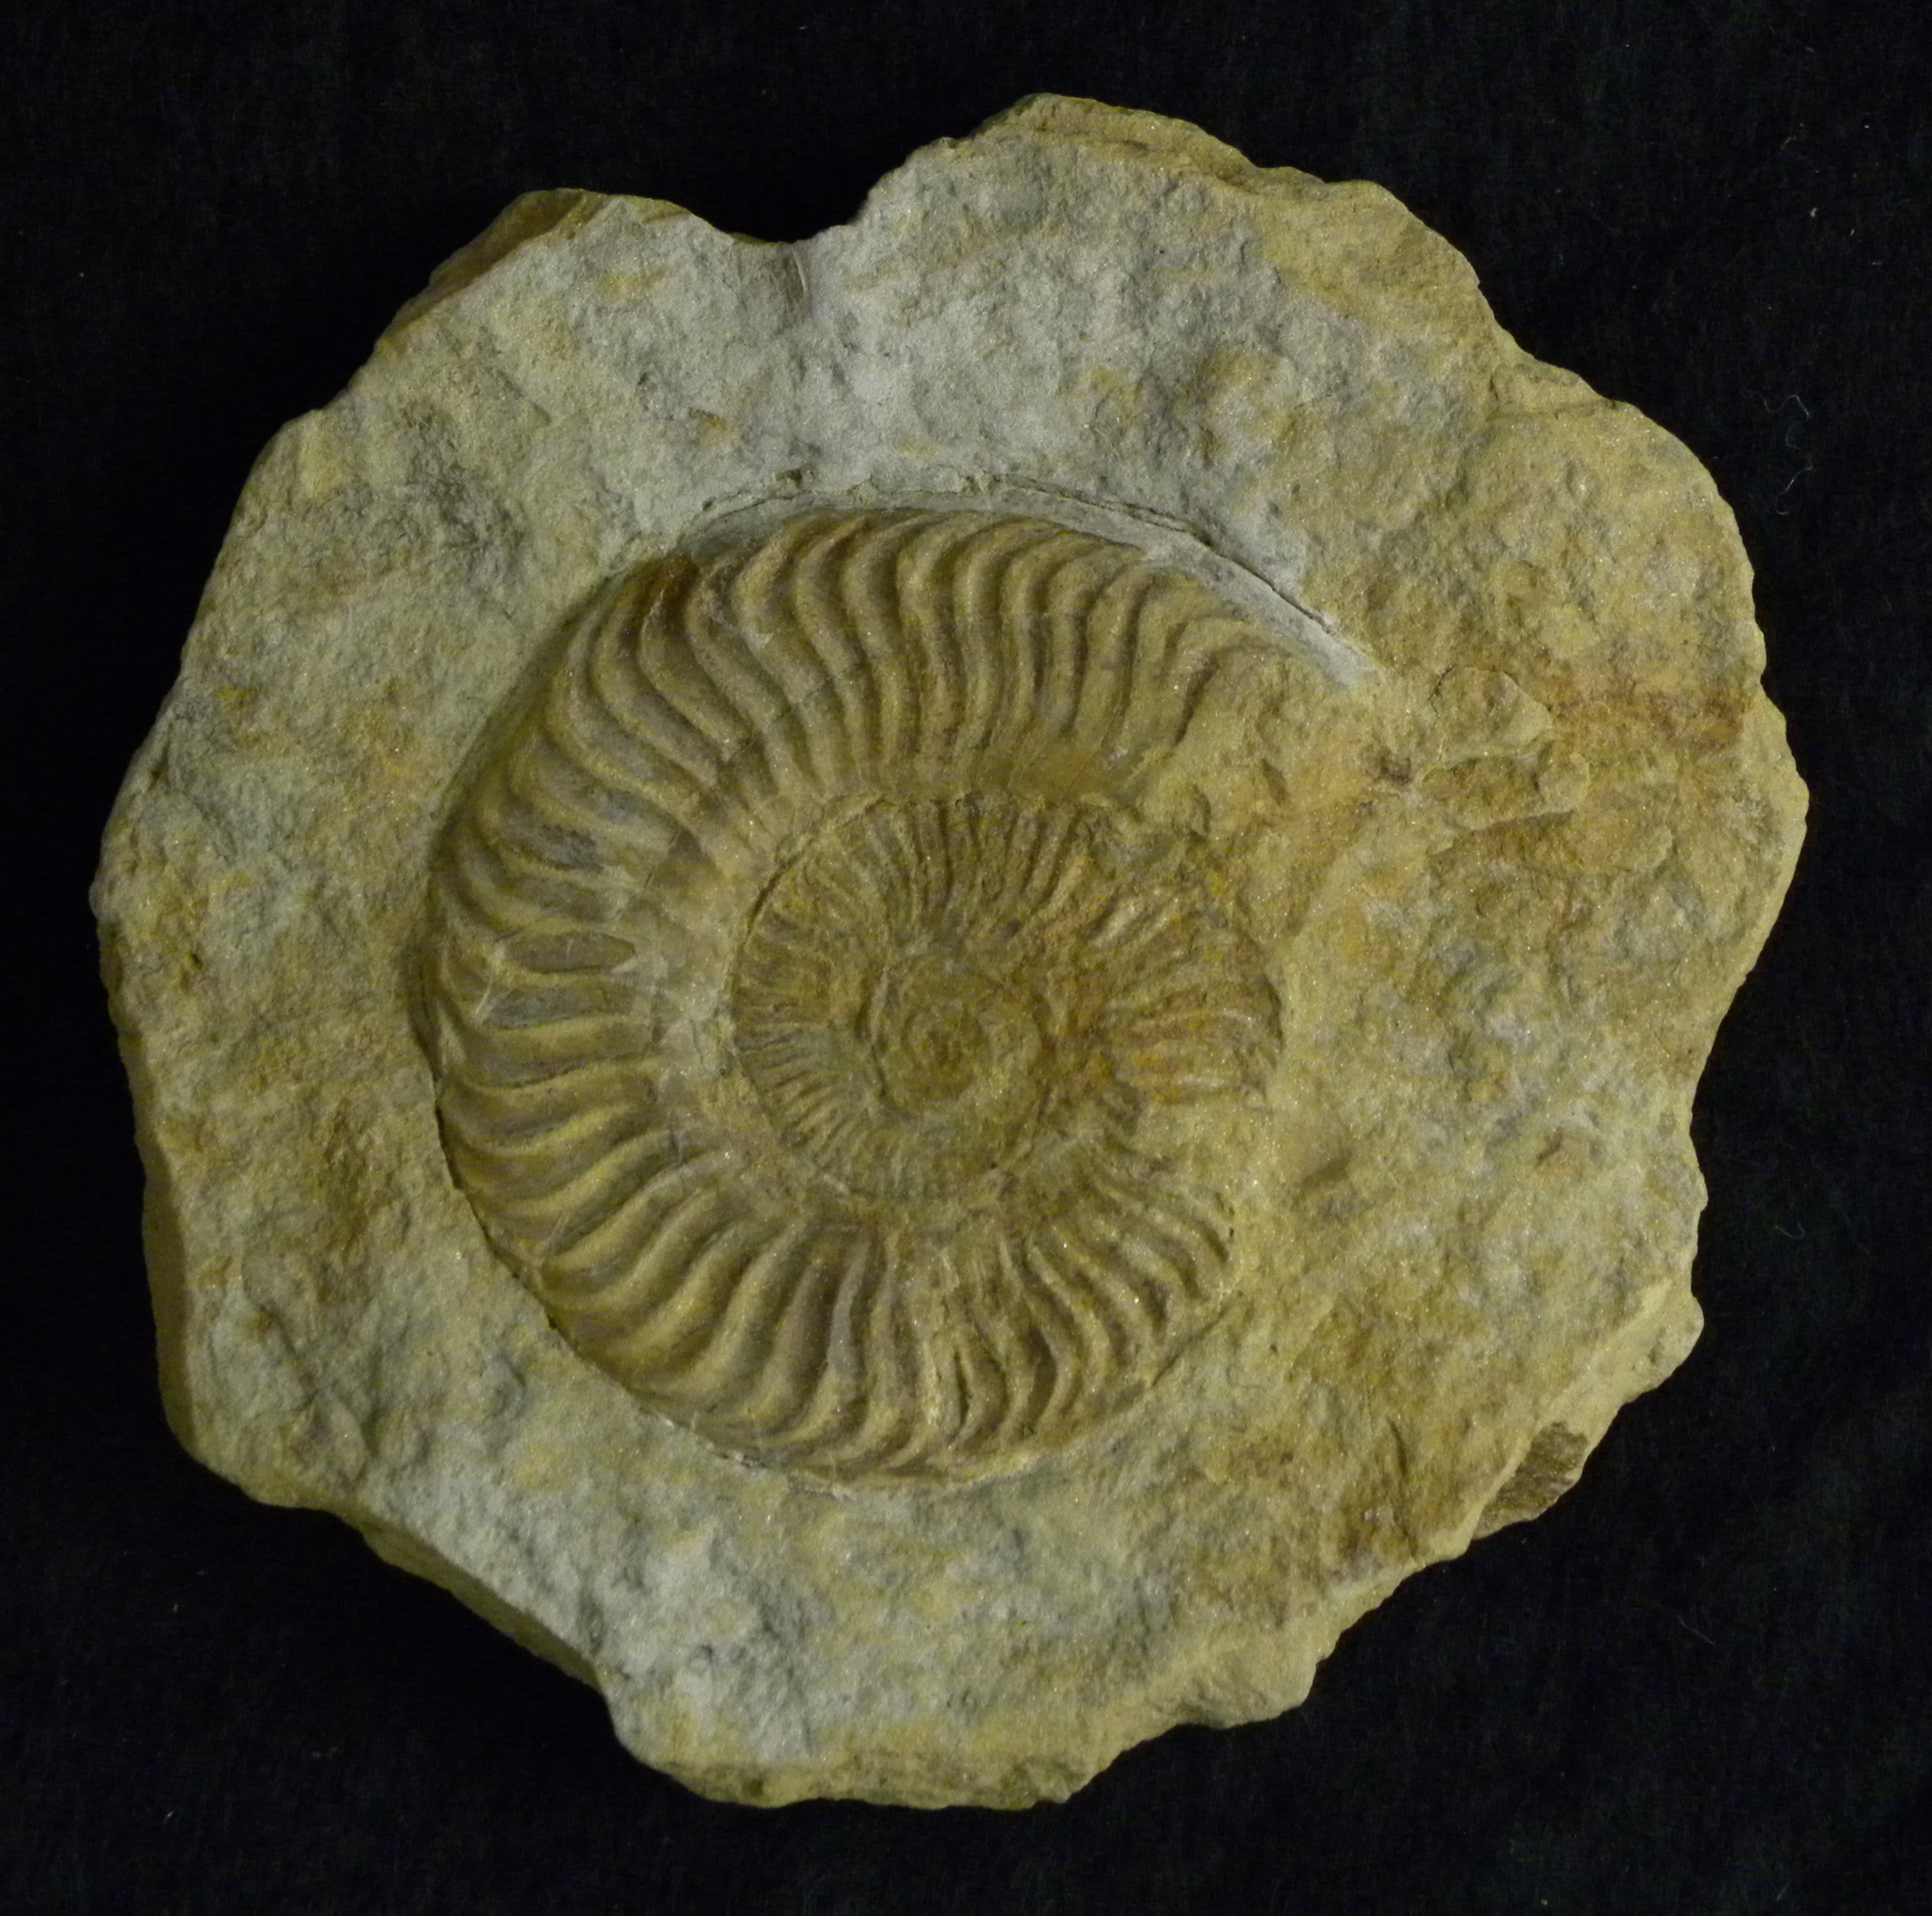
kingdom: Animalia
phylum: Mollusca
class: Cephalopoda
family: Hildoceratidae
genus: Grammoceras
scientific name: Grammoceras striatulum
